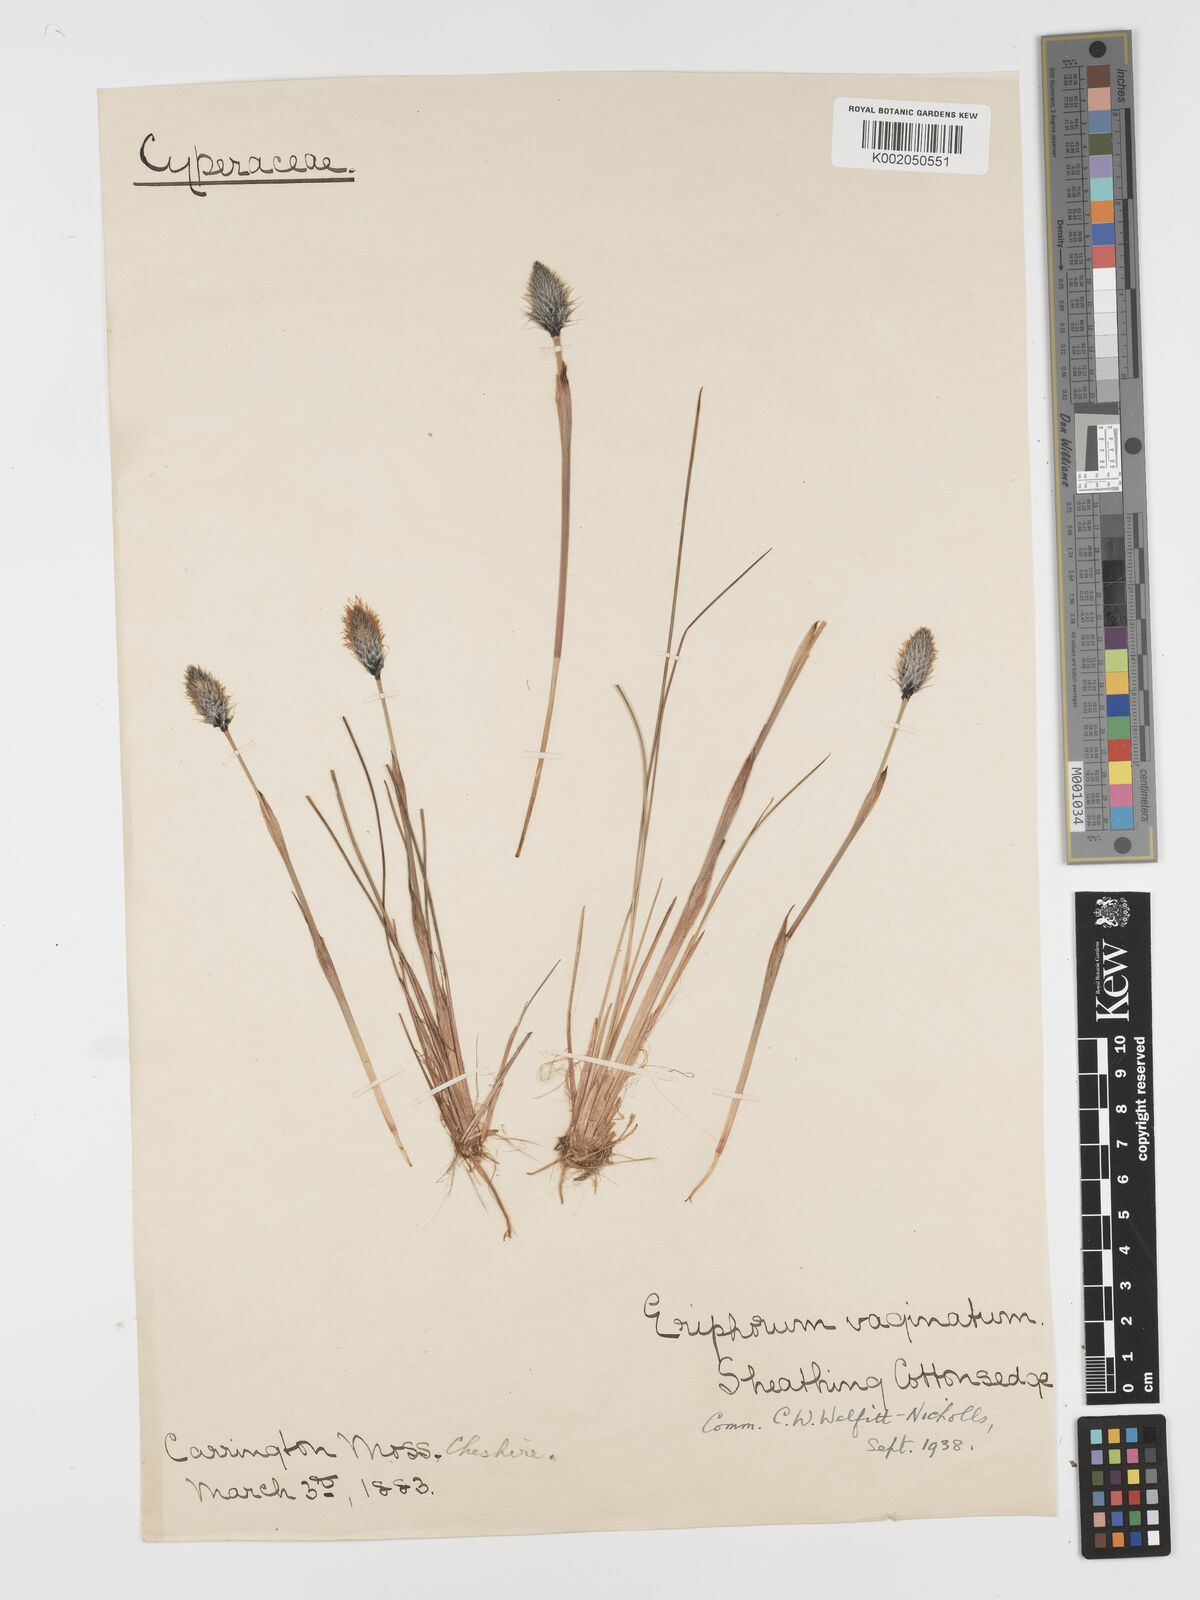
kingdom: Plantae
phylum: Tracheophyta
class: Liliopsida
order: Poales
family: Cyperaceae
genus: Eriophorum
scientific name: Eriophorum vaginatum
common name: Hare's-tail cottongrass
